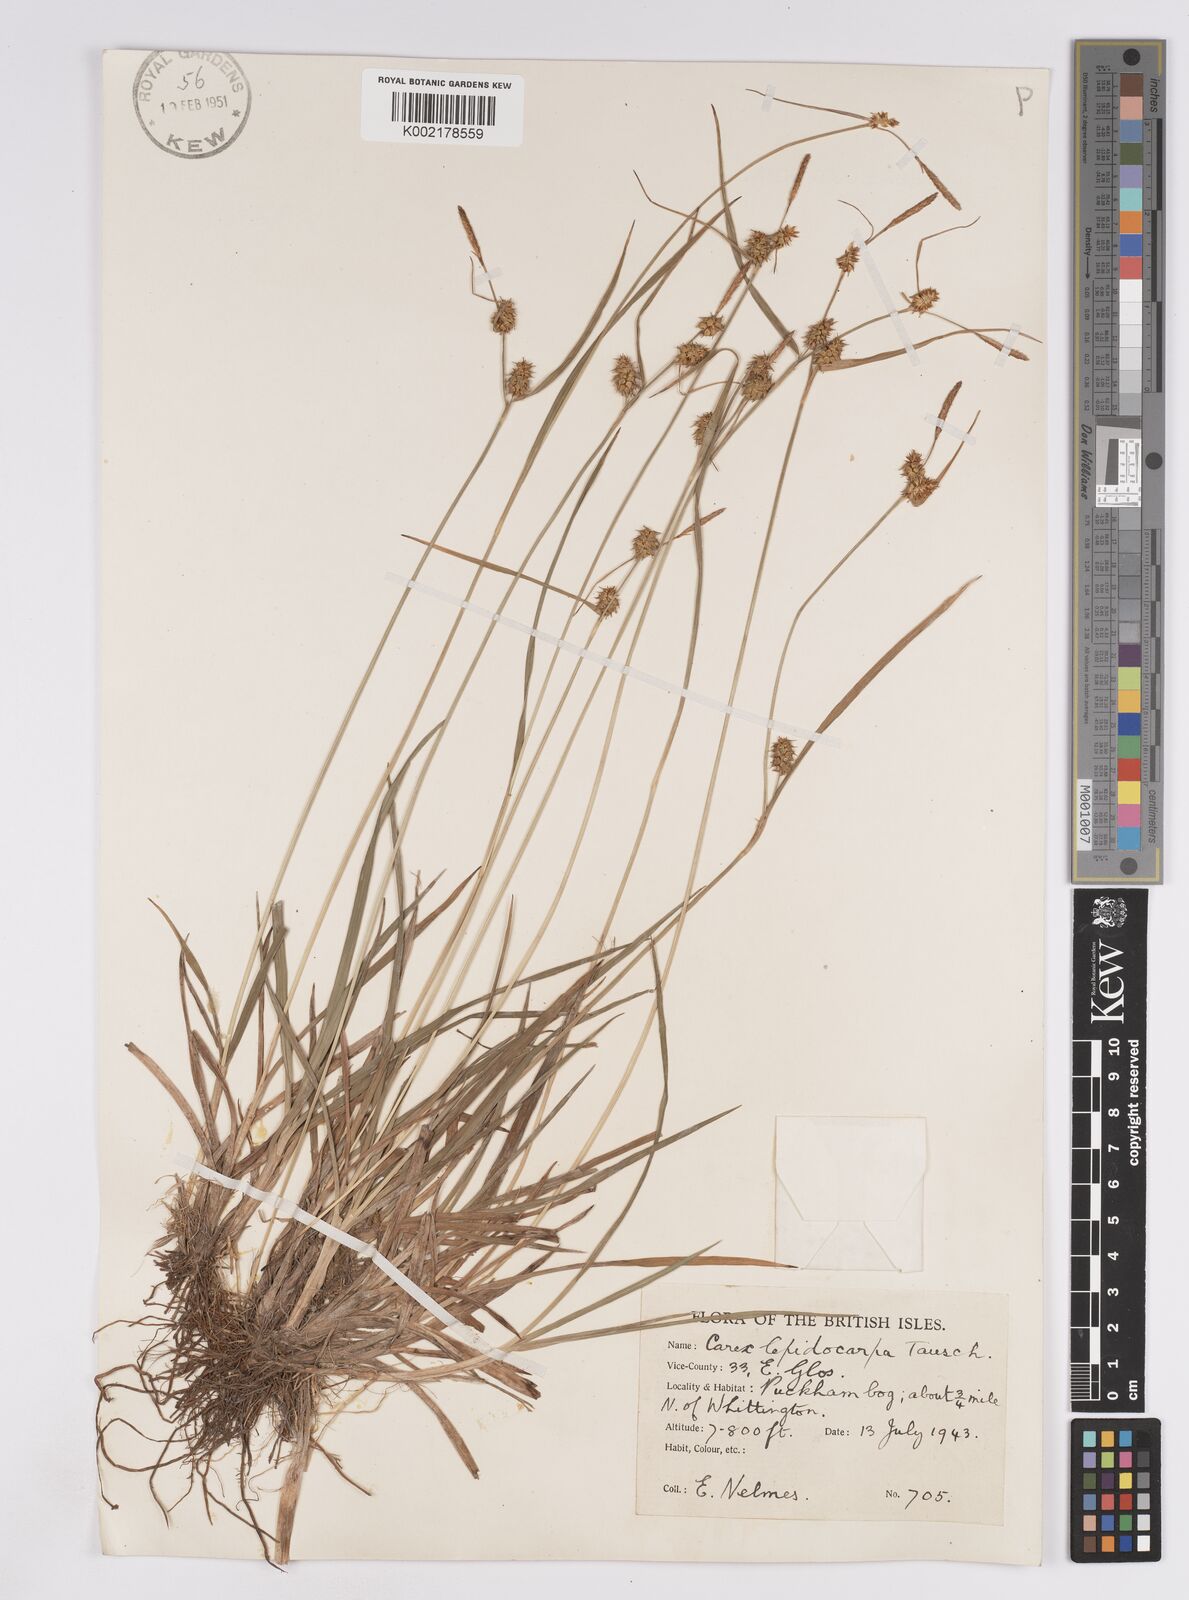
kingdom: Plantae
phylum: Tracheophyta
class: Liliopsida
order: Poales
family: Cyperaceae
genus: Carex
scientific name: Carex lepidocarpa
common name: Long-stalked yellow-sedge
